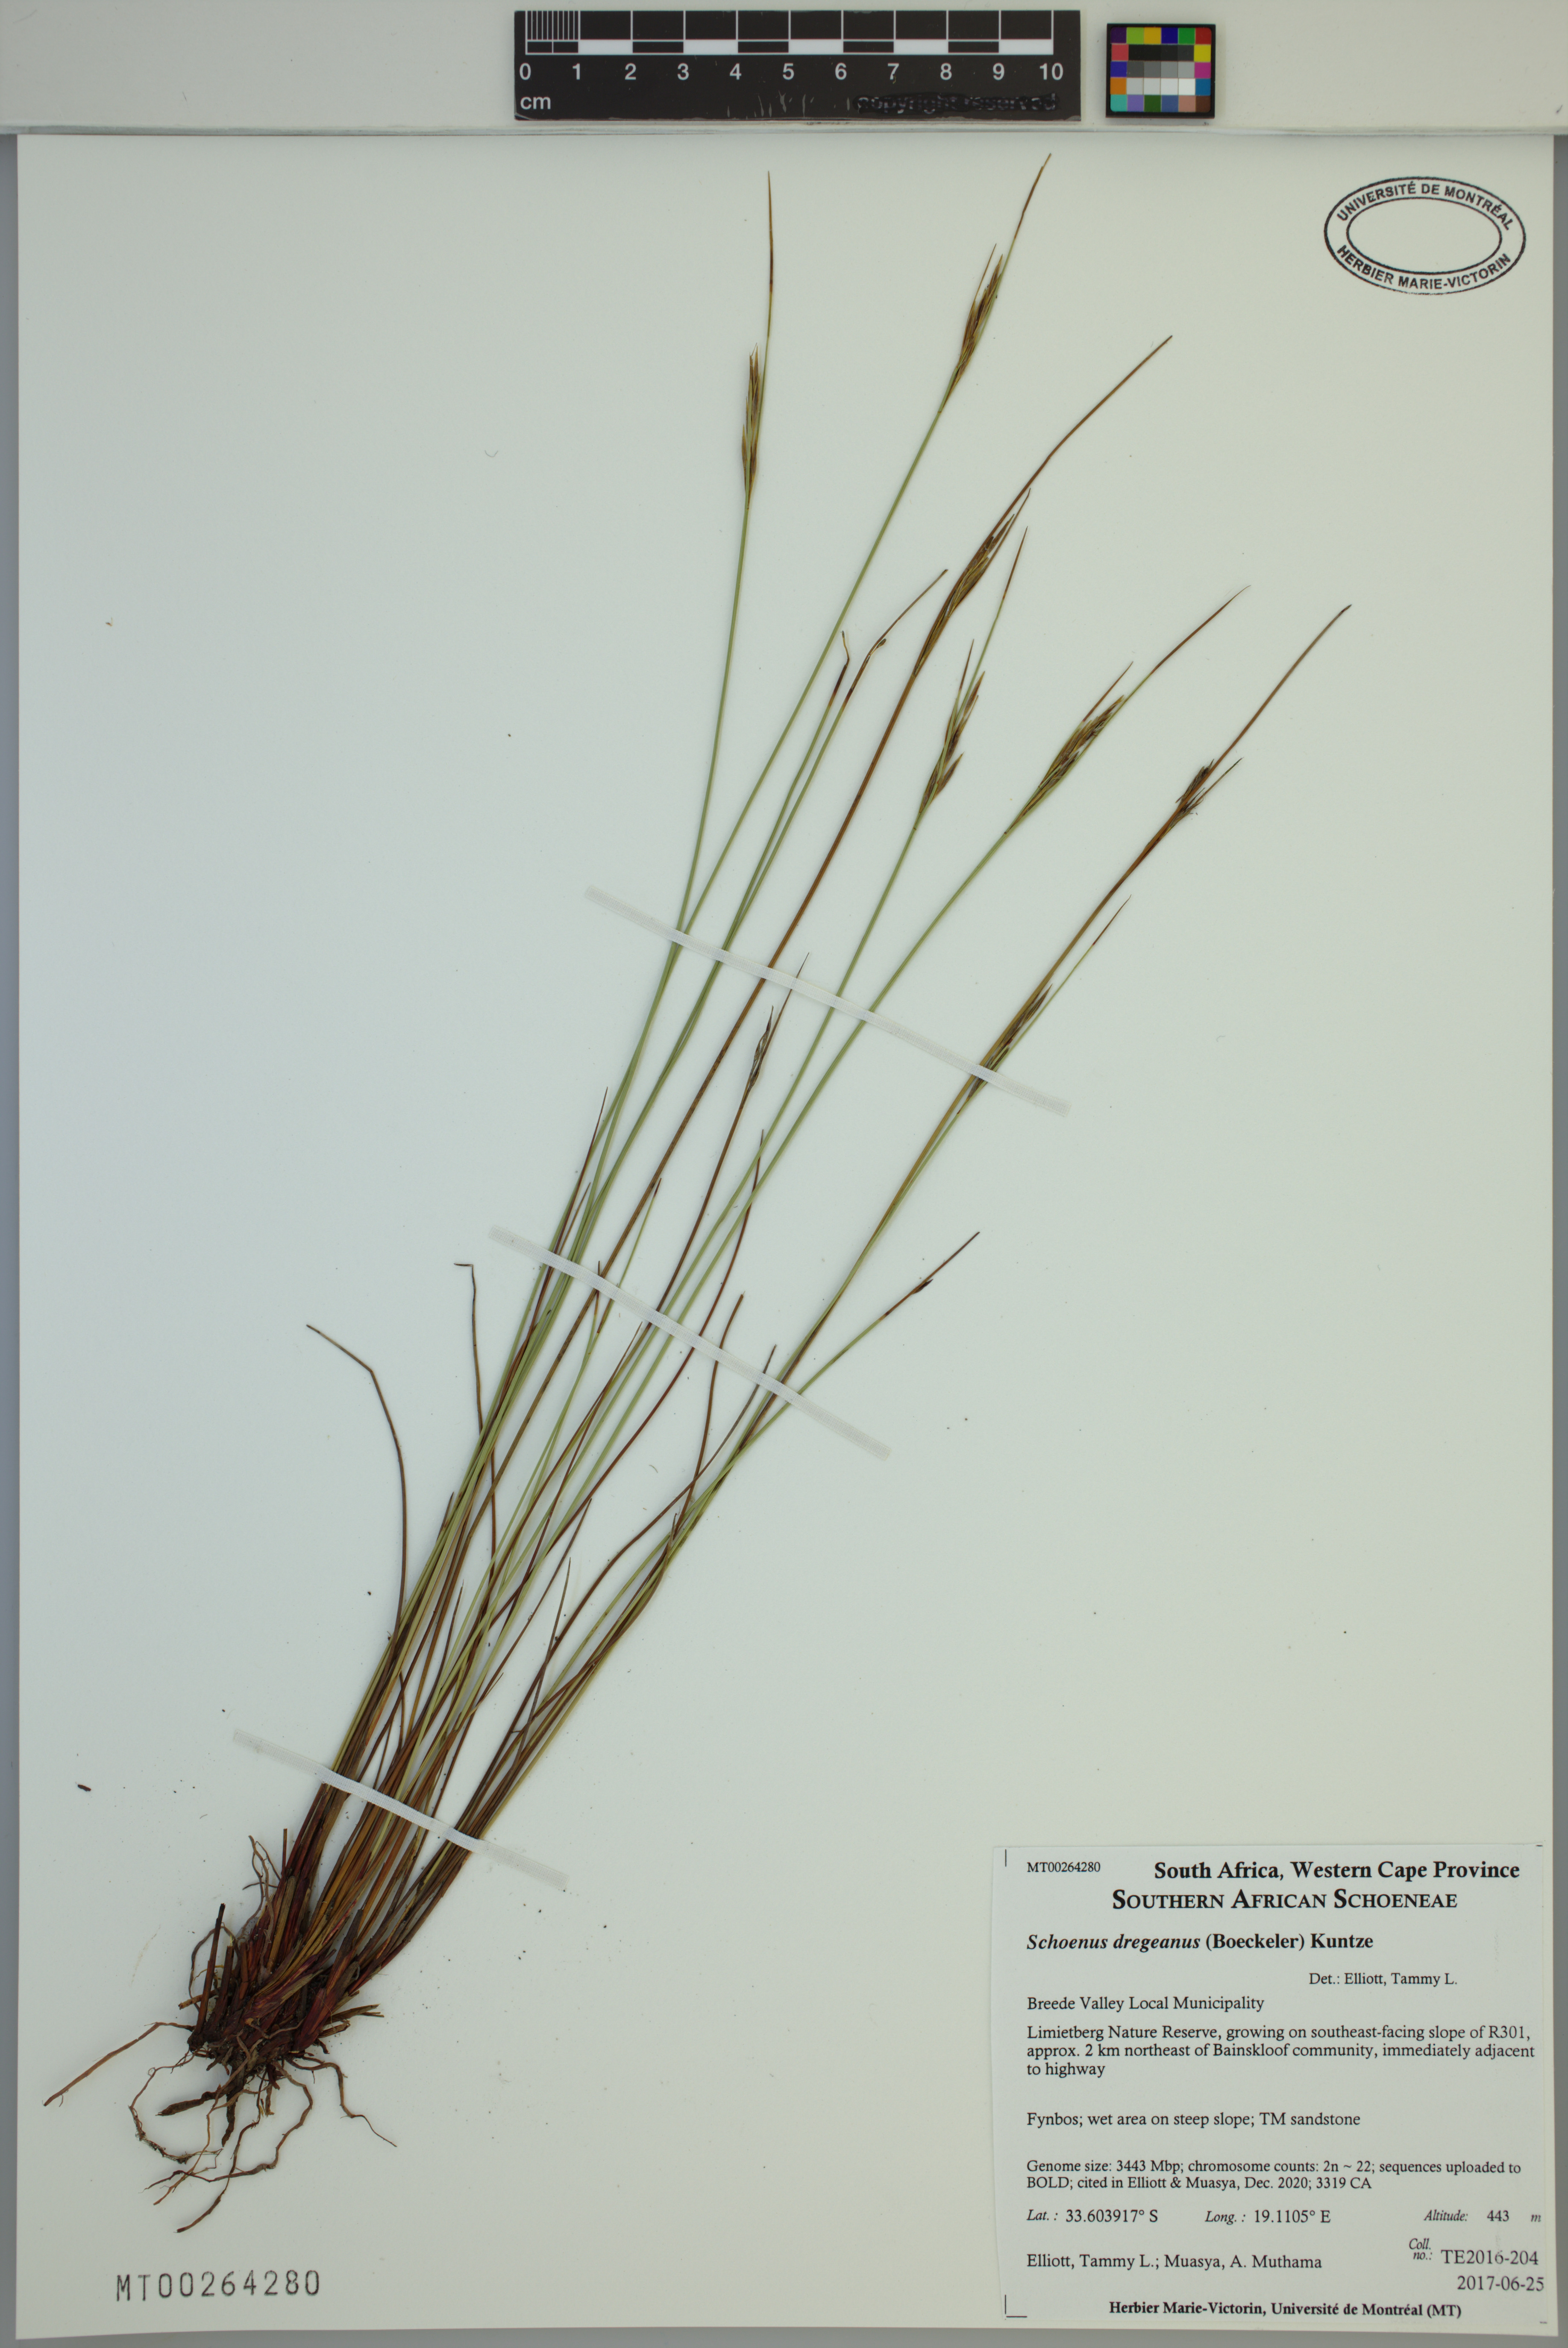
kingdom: Plantae
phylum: Tracheophyta
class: Liliopsida
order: Poales
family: Cyperaceae
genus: Schoenus
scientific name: Schoenus dregeanus
